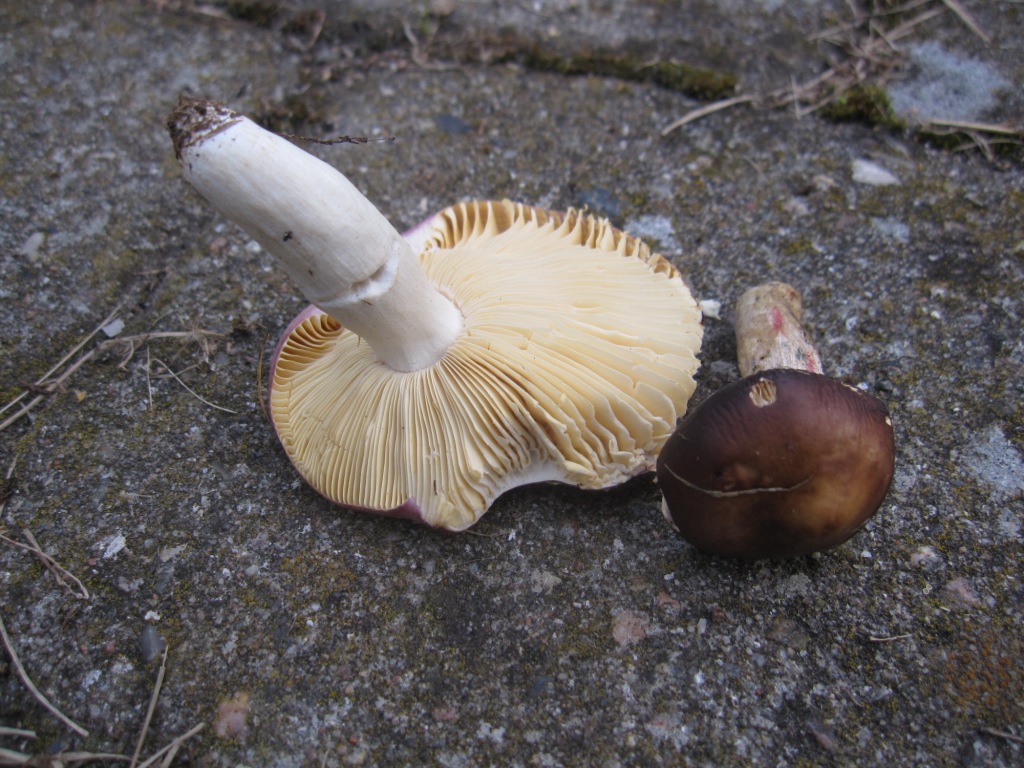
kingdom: Fungi
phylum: Basidiomycota
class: Agaricomycetes
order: Russulales
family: Russulaceae
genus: Russula
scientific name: Russula caerulea
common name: puklet skørhat
